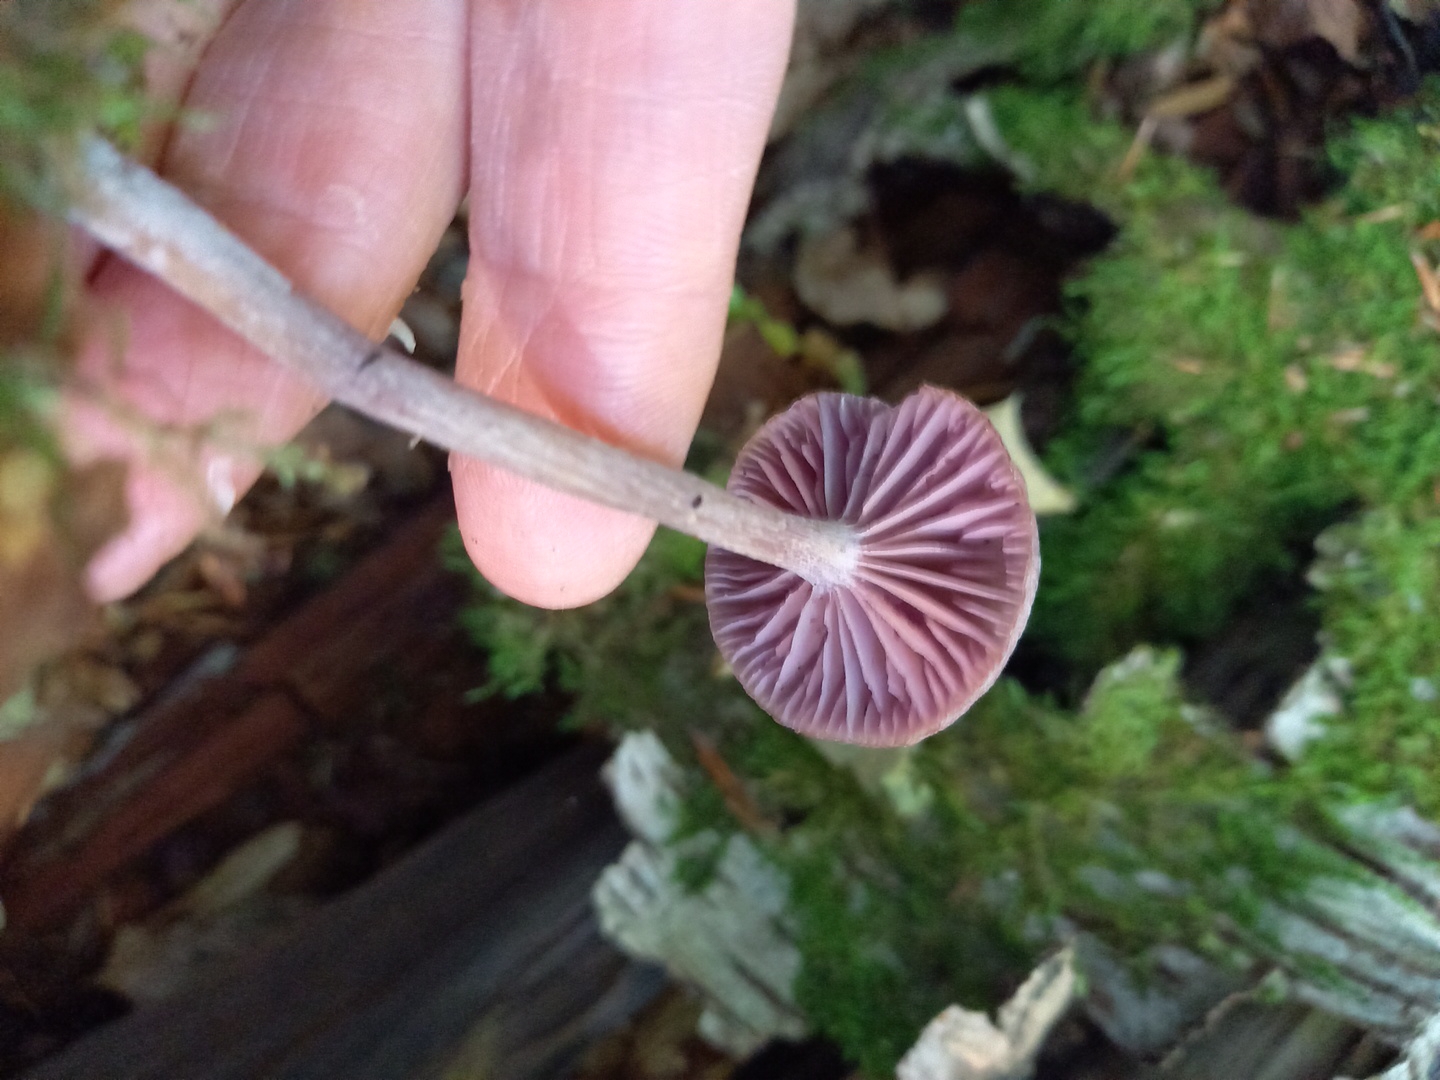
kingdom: Fungi
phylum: Basidiomycota
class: Agaricomycetes
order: Agaricales
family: Hydnangiaceae
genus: Laccaria
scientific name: Laccaria amethystina
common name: violet ametysthat
